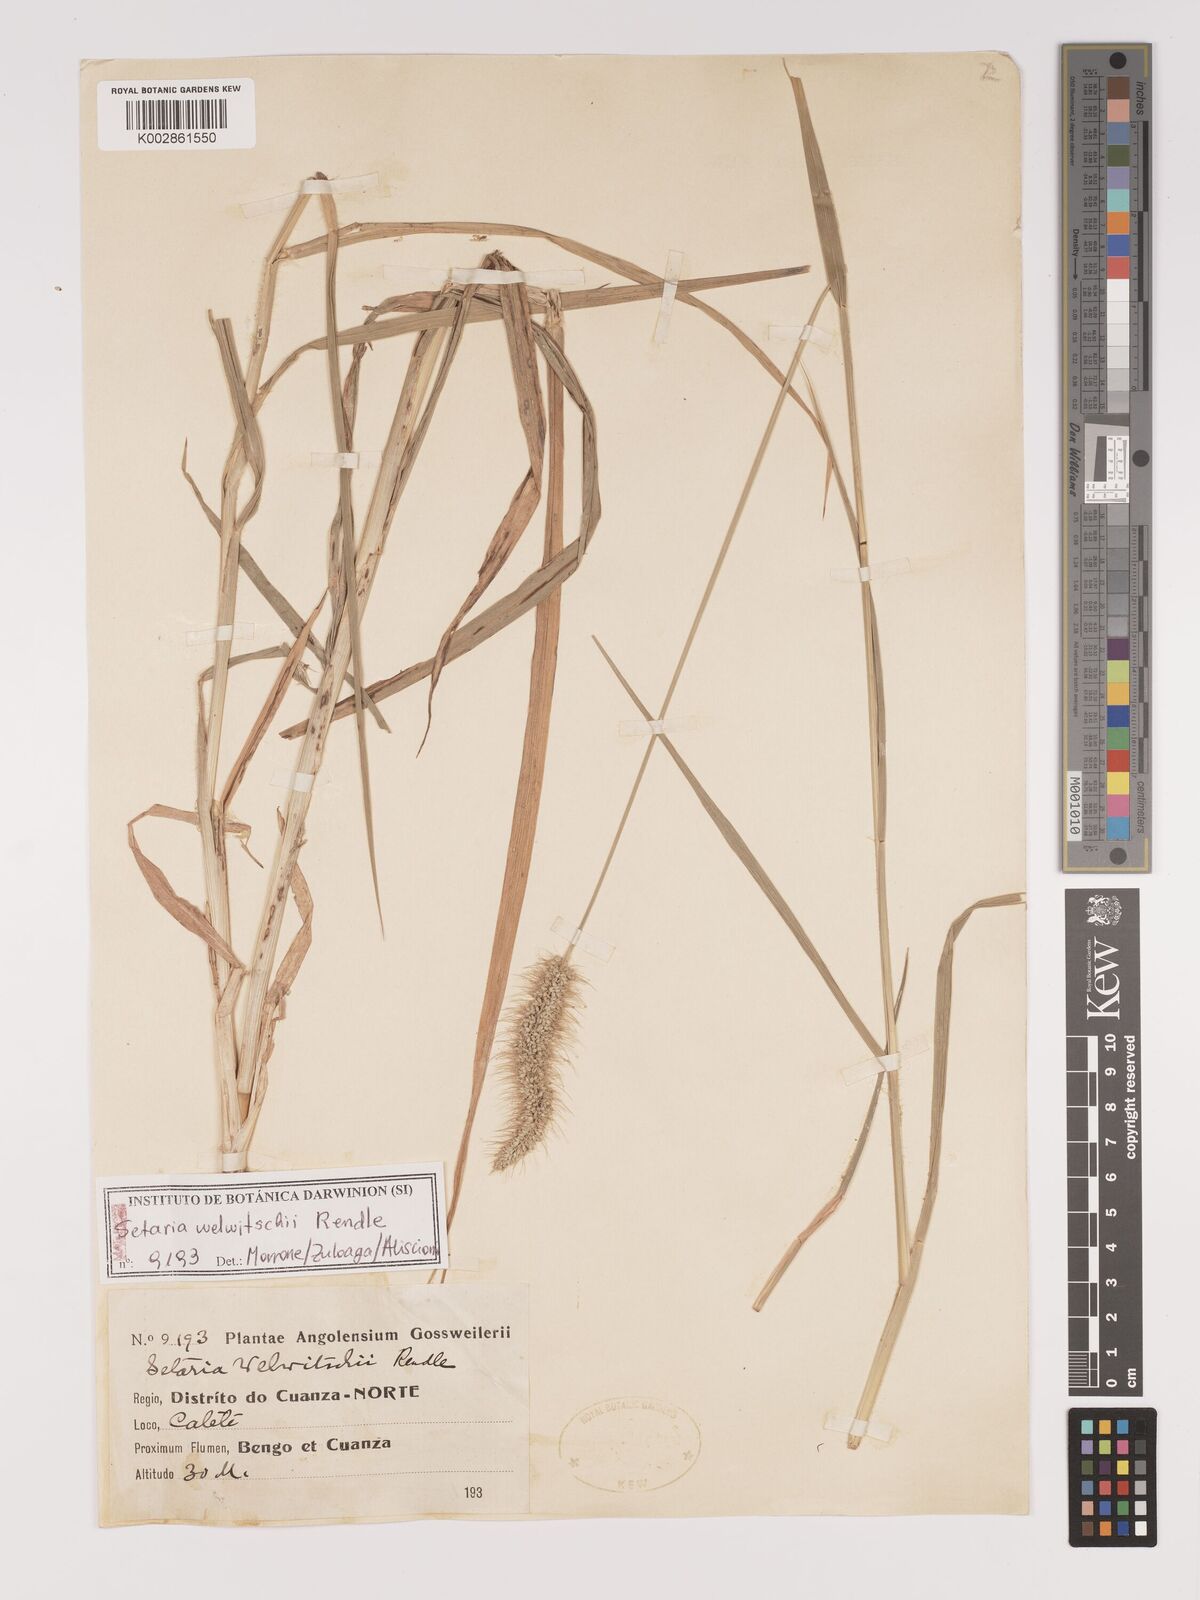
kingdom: Plantae
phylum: Tracheophyta
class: Liliopsida
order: Poales
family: Poaceae
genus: Setaria
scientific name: Setaria welwitschii
